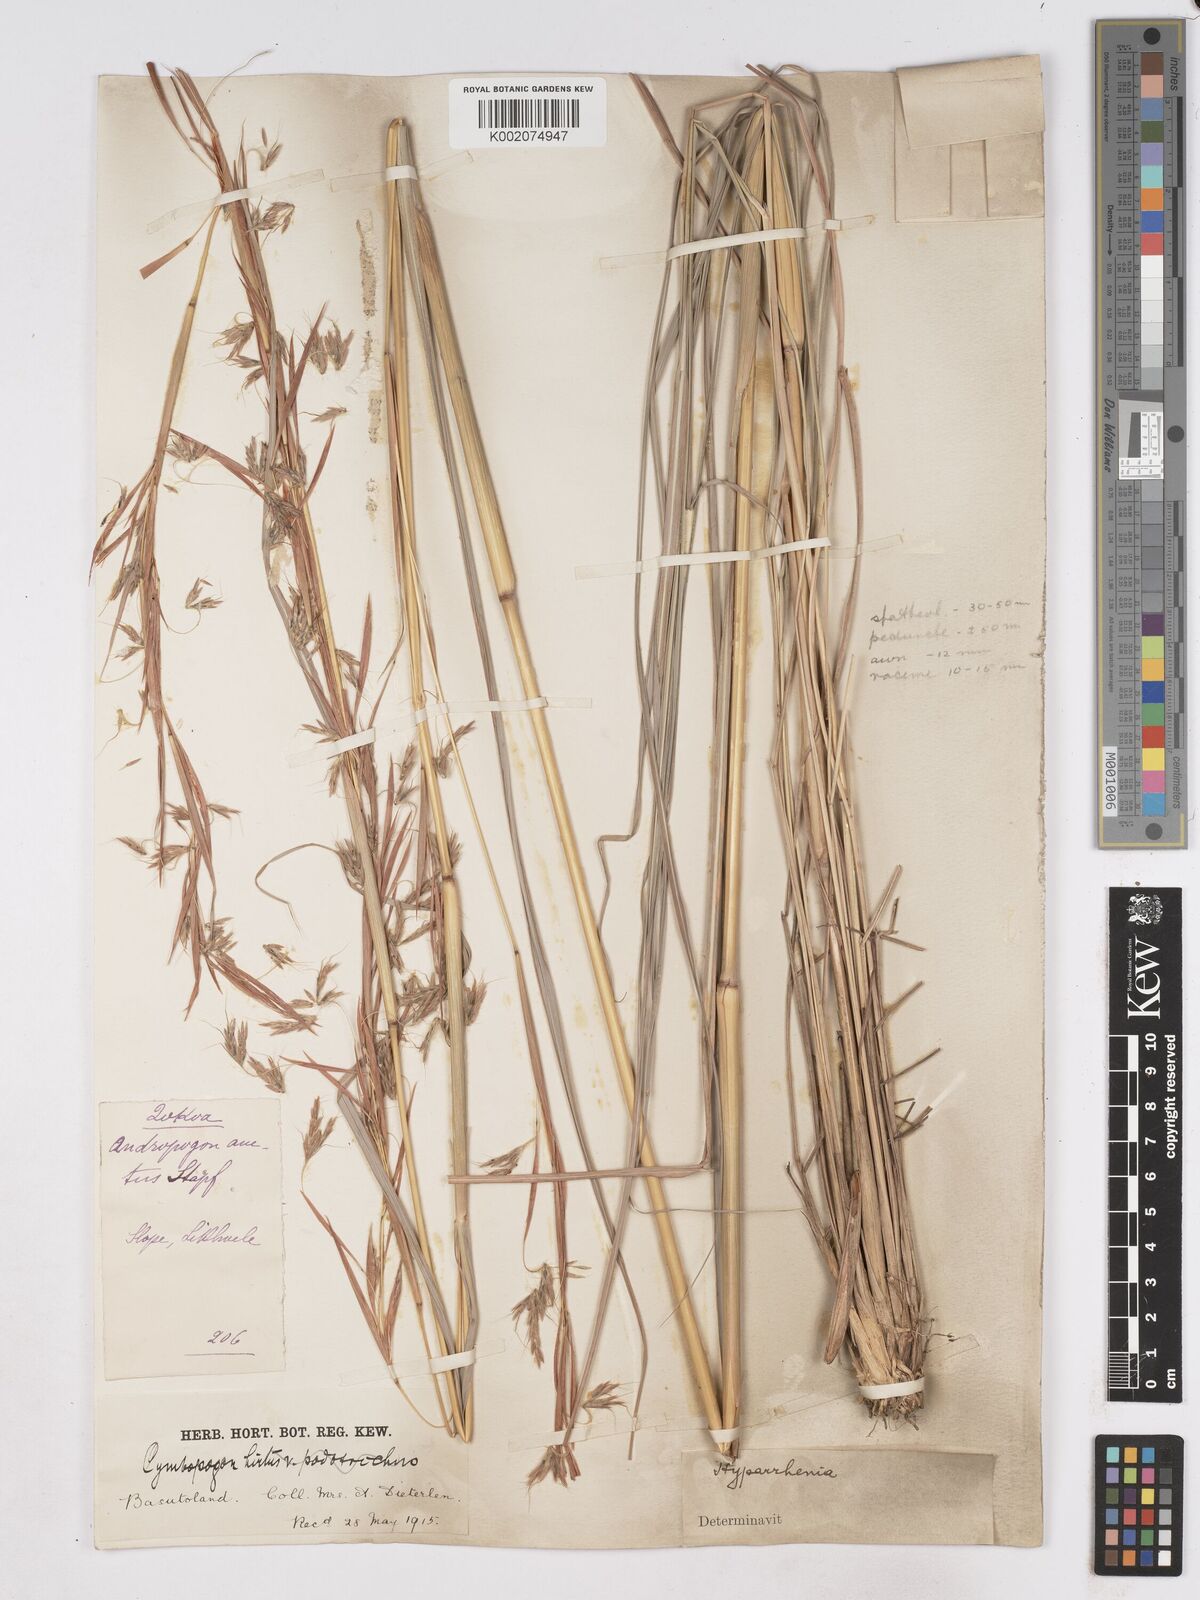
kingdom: Plantae
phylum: Tracheophyta
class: Liliopsida
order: Poales
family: Poaceae
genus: Hyparrhenia
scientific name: Hyparrhenia dregeana
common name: Silky thatching grass
